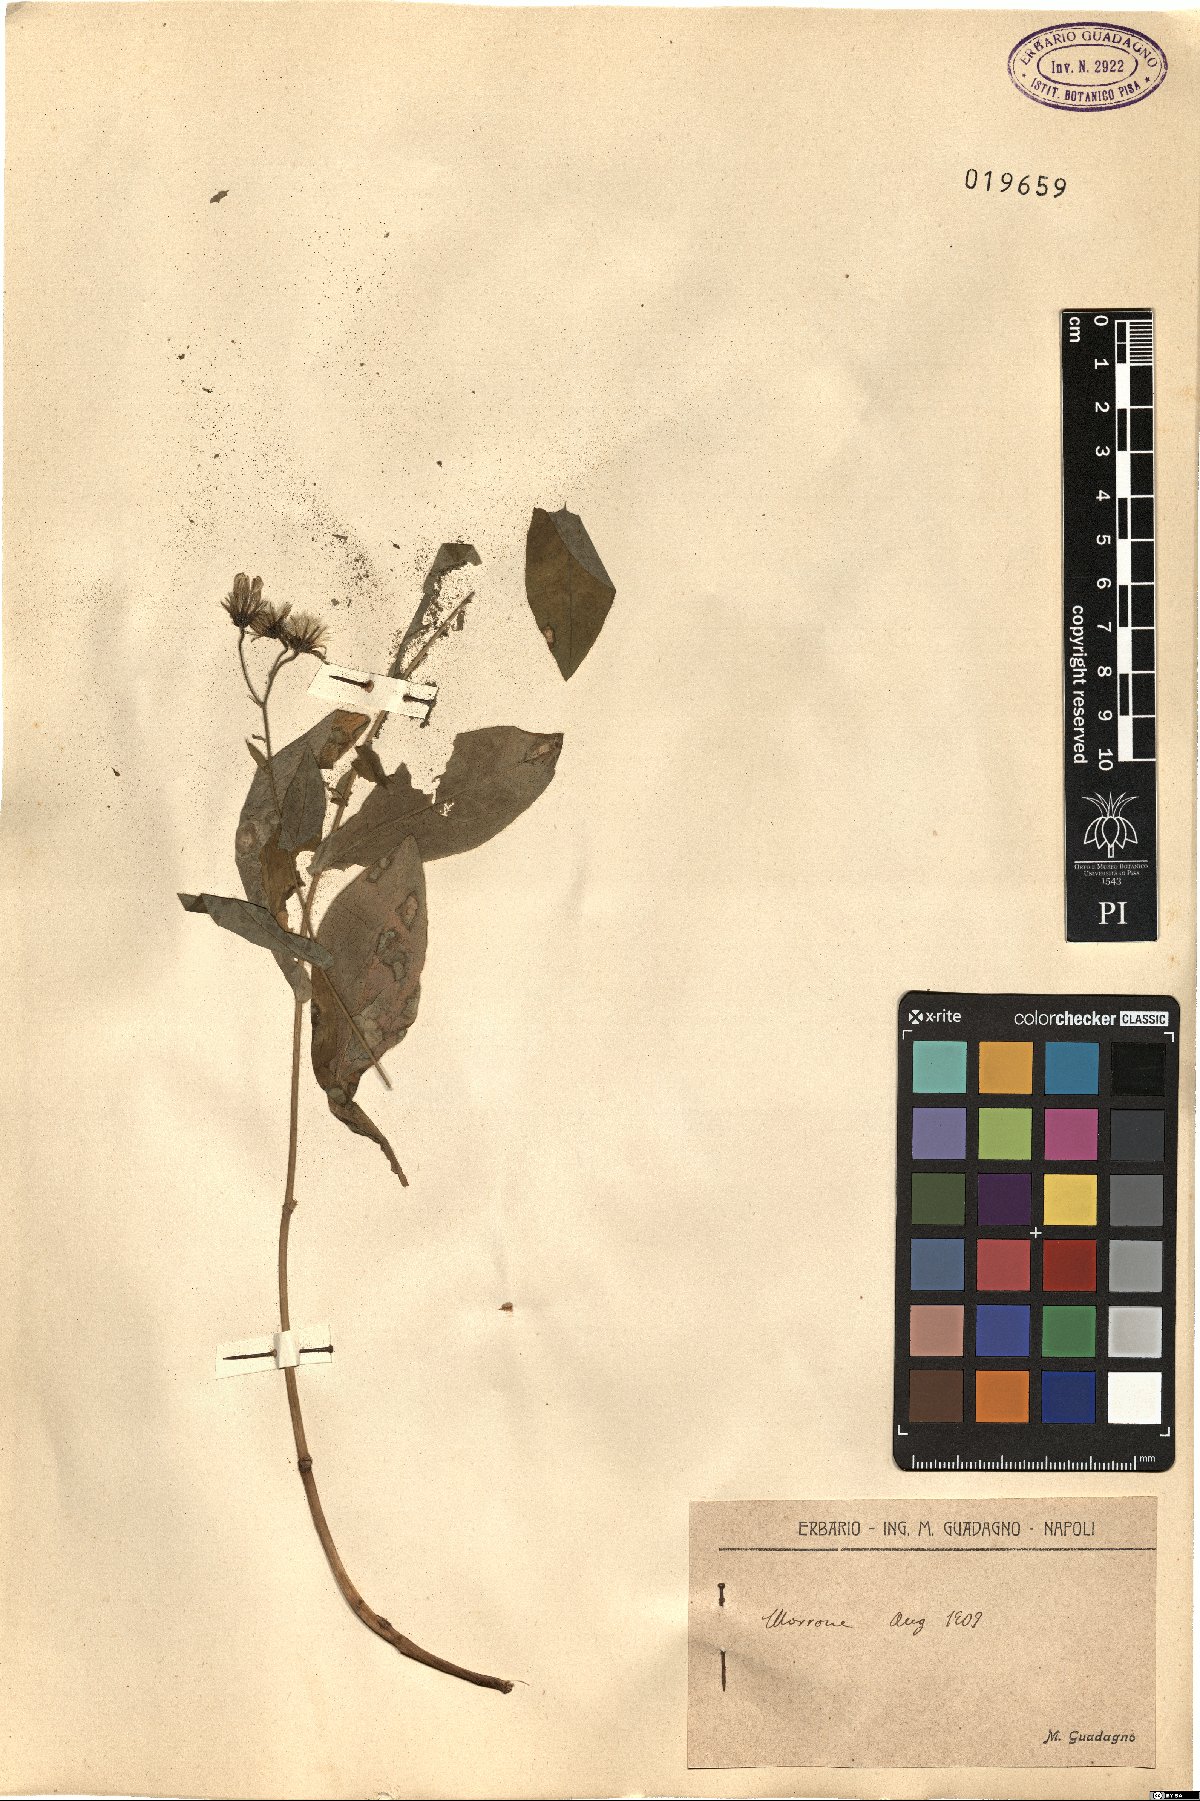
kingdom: Plantae
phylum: Tracheophyta
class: Magnoliopsida
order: Asterales
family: Asteraceae
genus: Hieracium
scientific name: Hieracium
